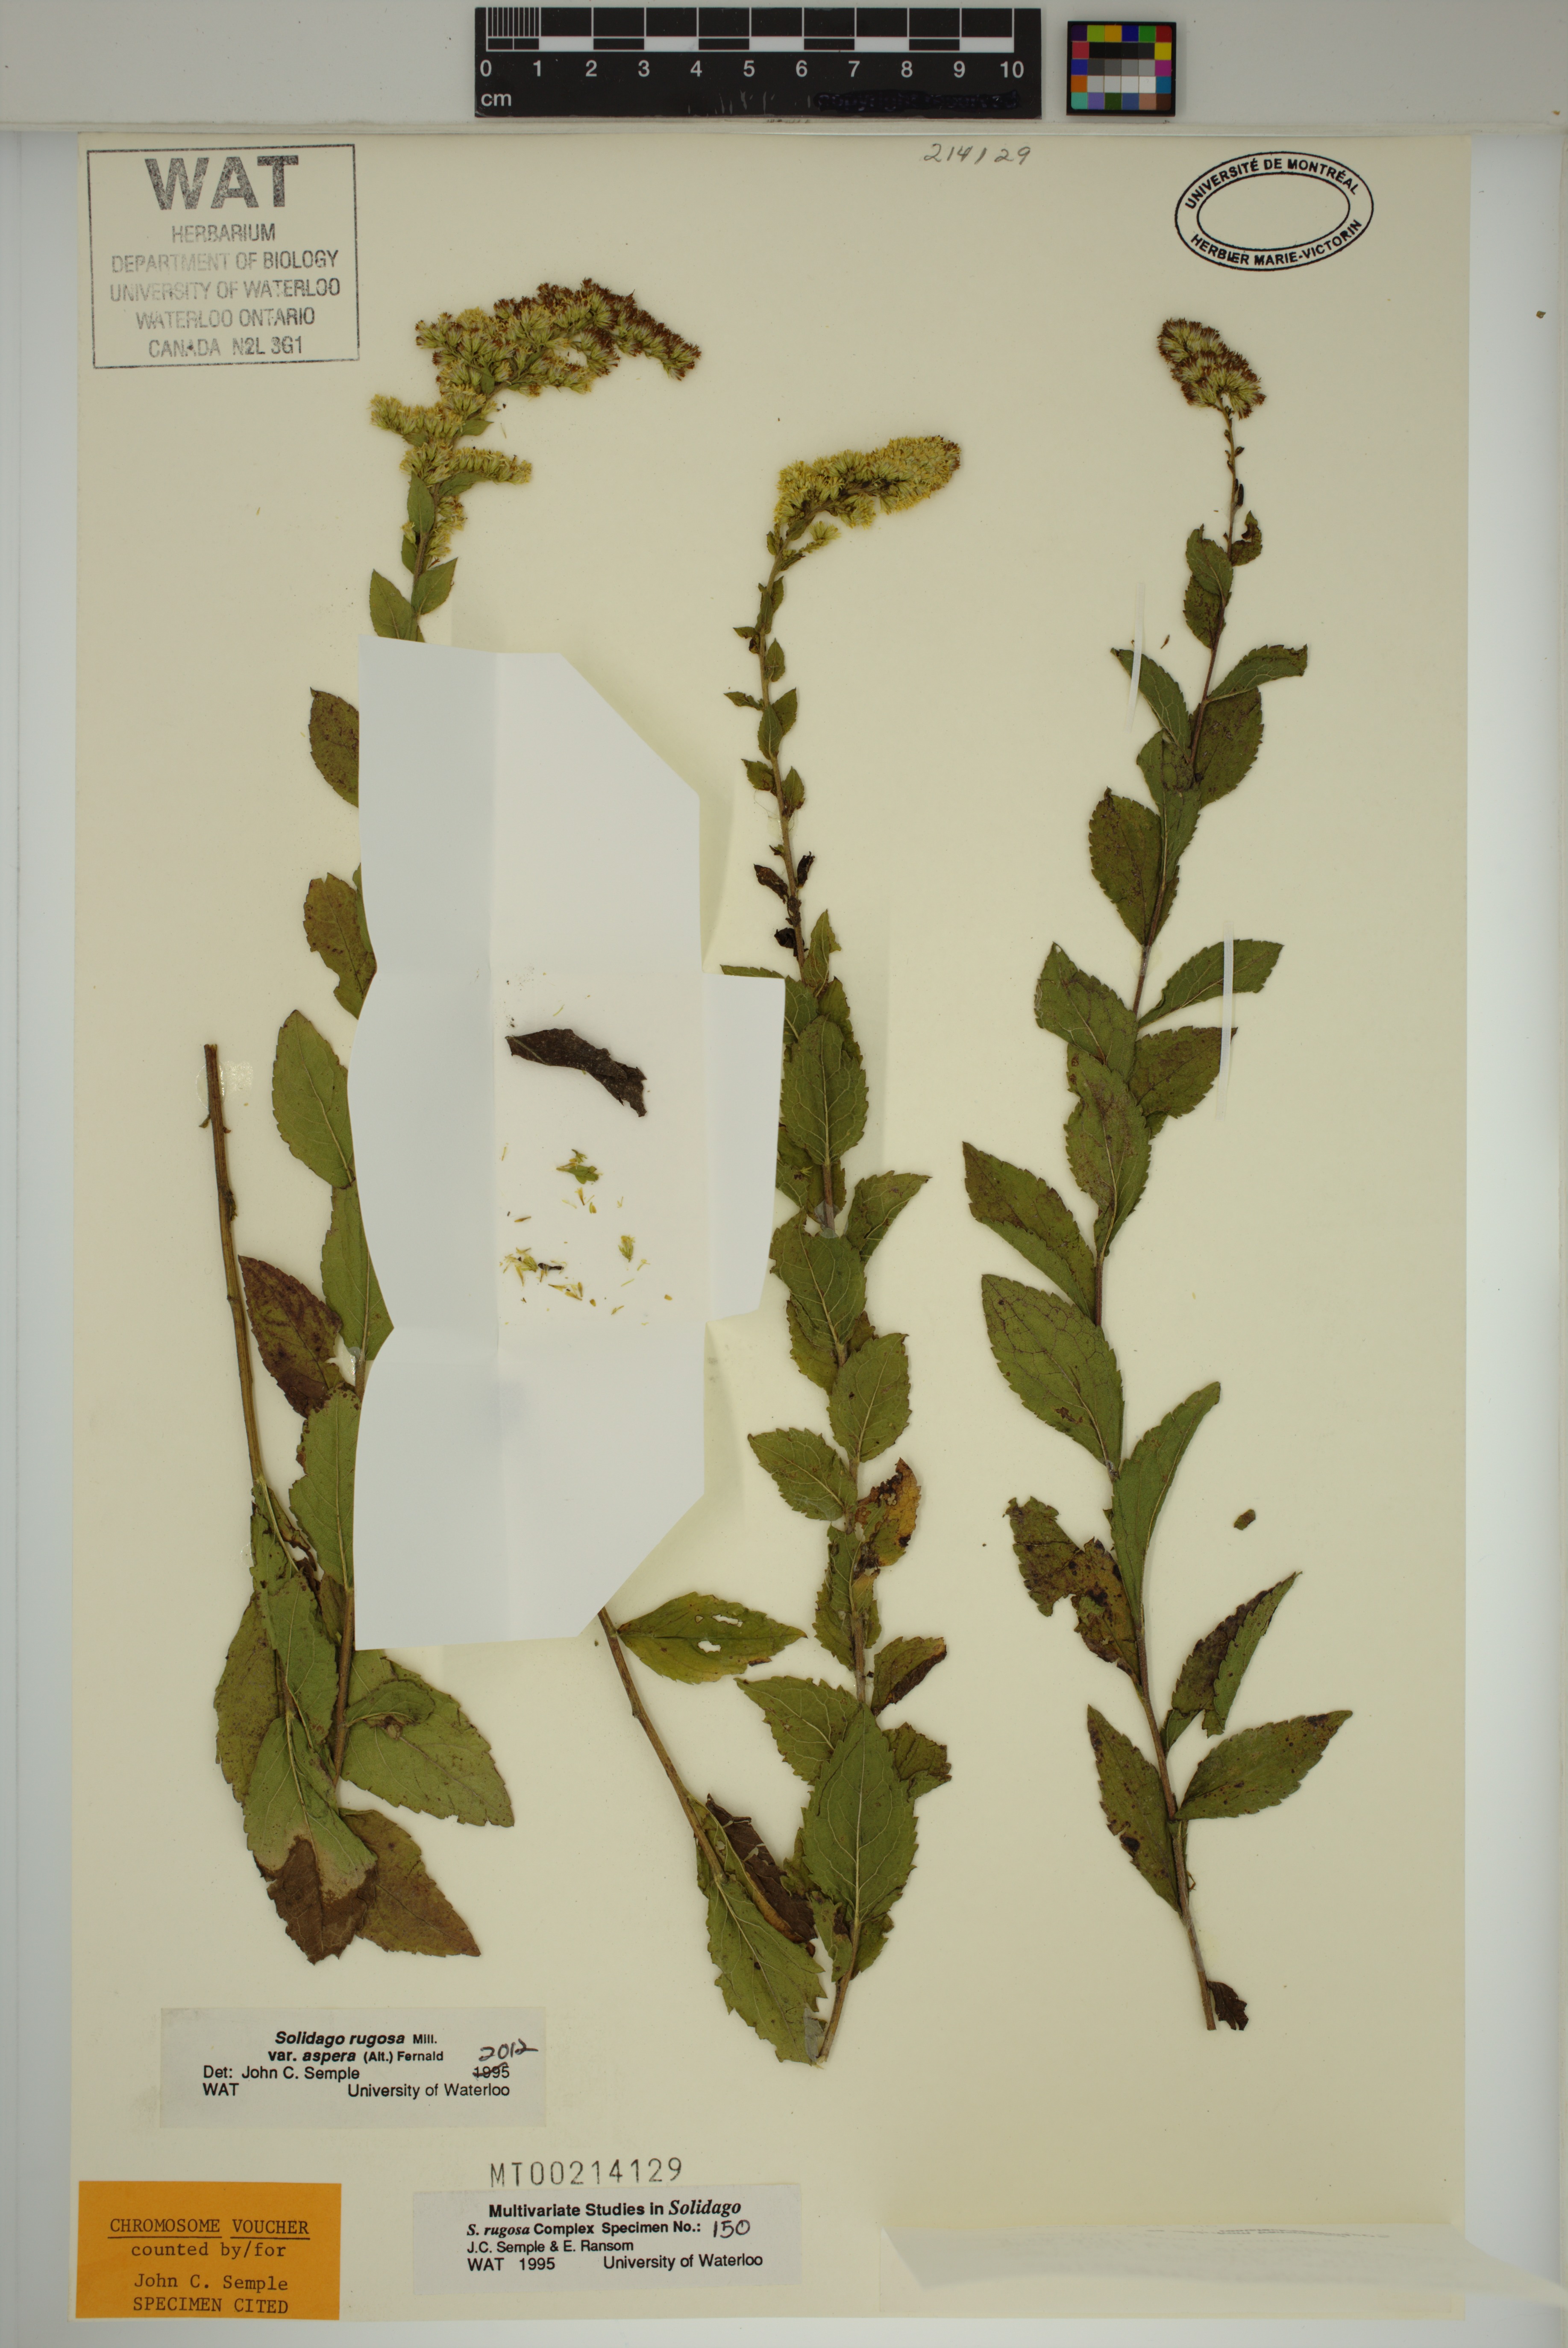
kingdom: Plantae
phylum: Tracheophyta
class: Magnoliopsida
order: Asterales
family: Asteraceae
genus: Solidago
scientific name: Solidago rugosa
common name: Rough-stemmed goldenrod
